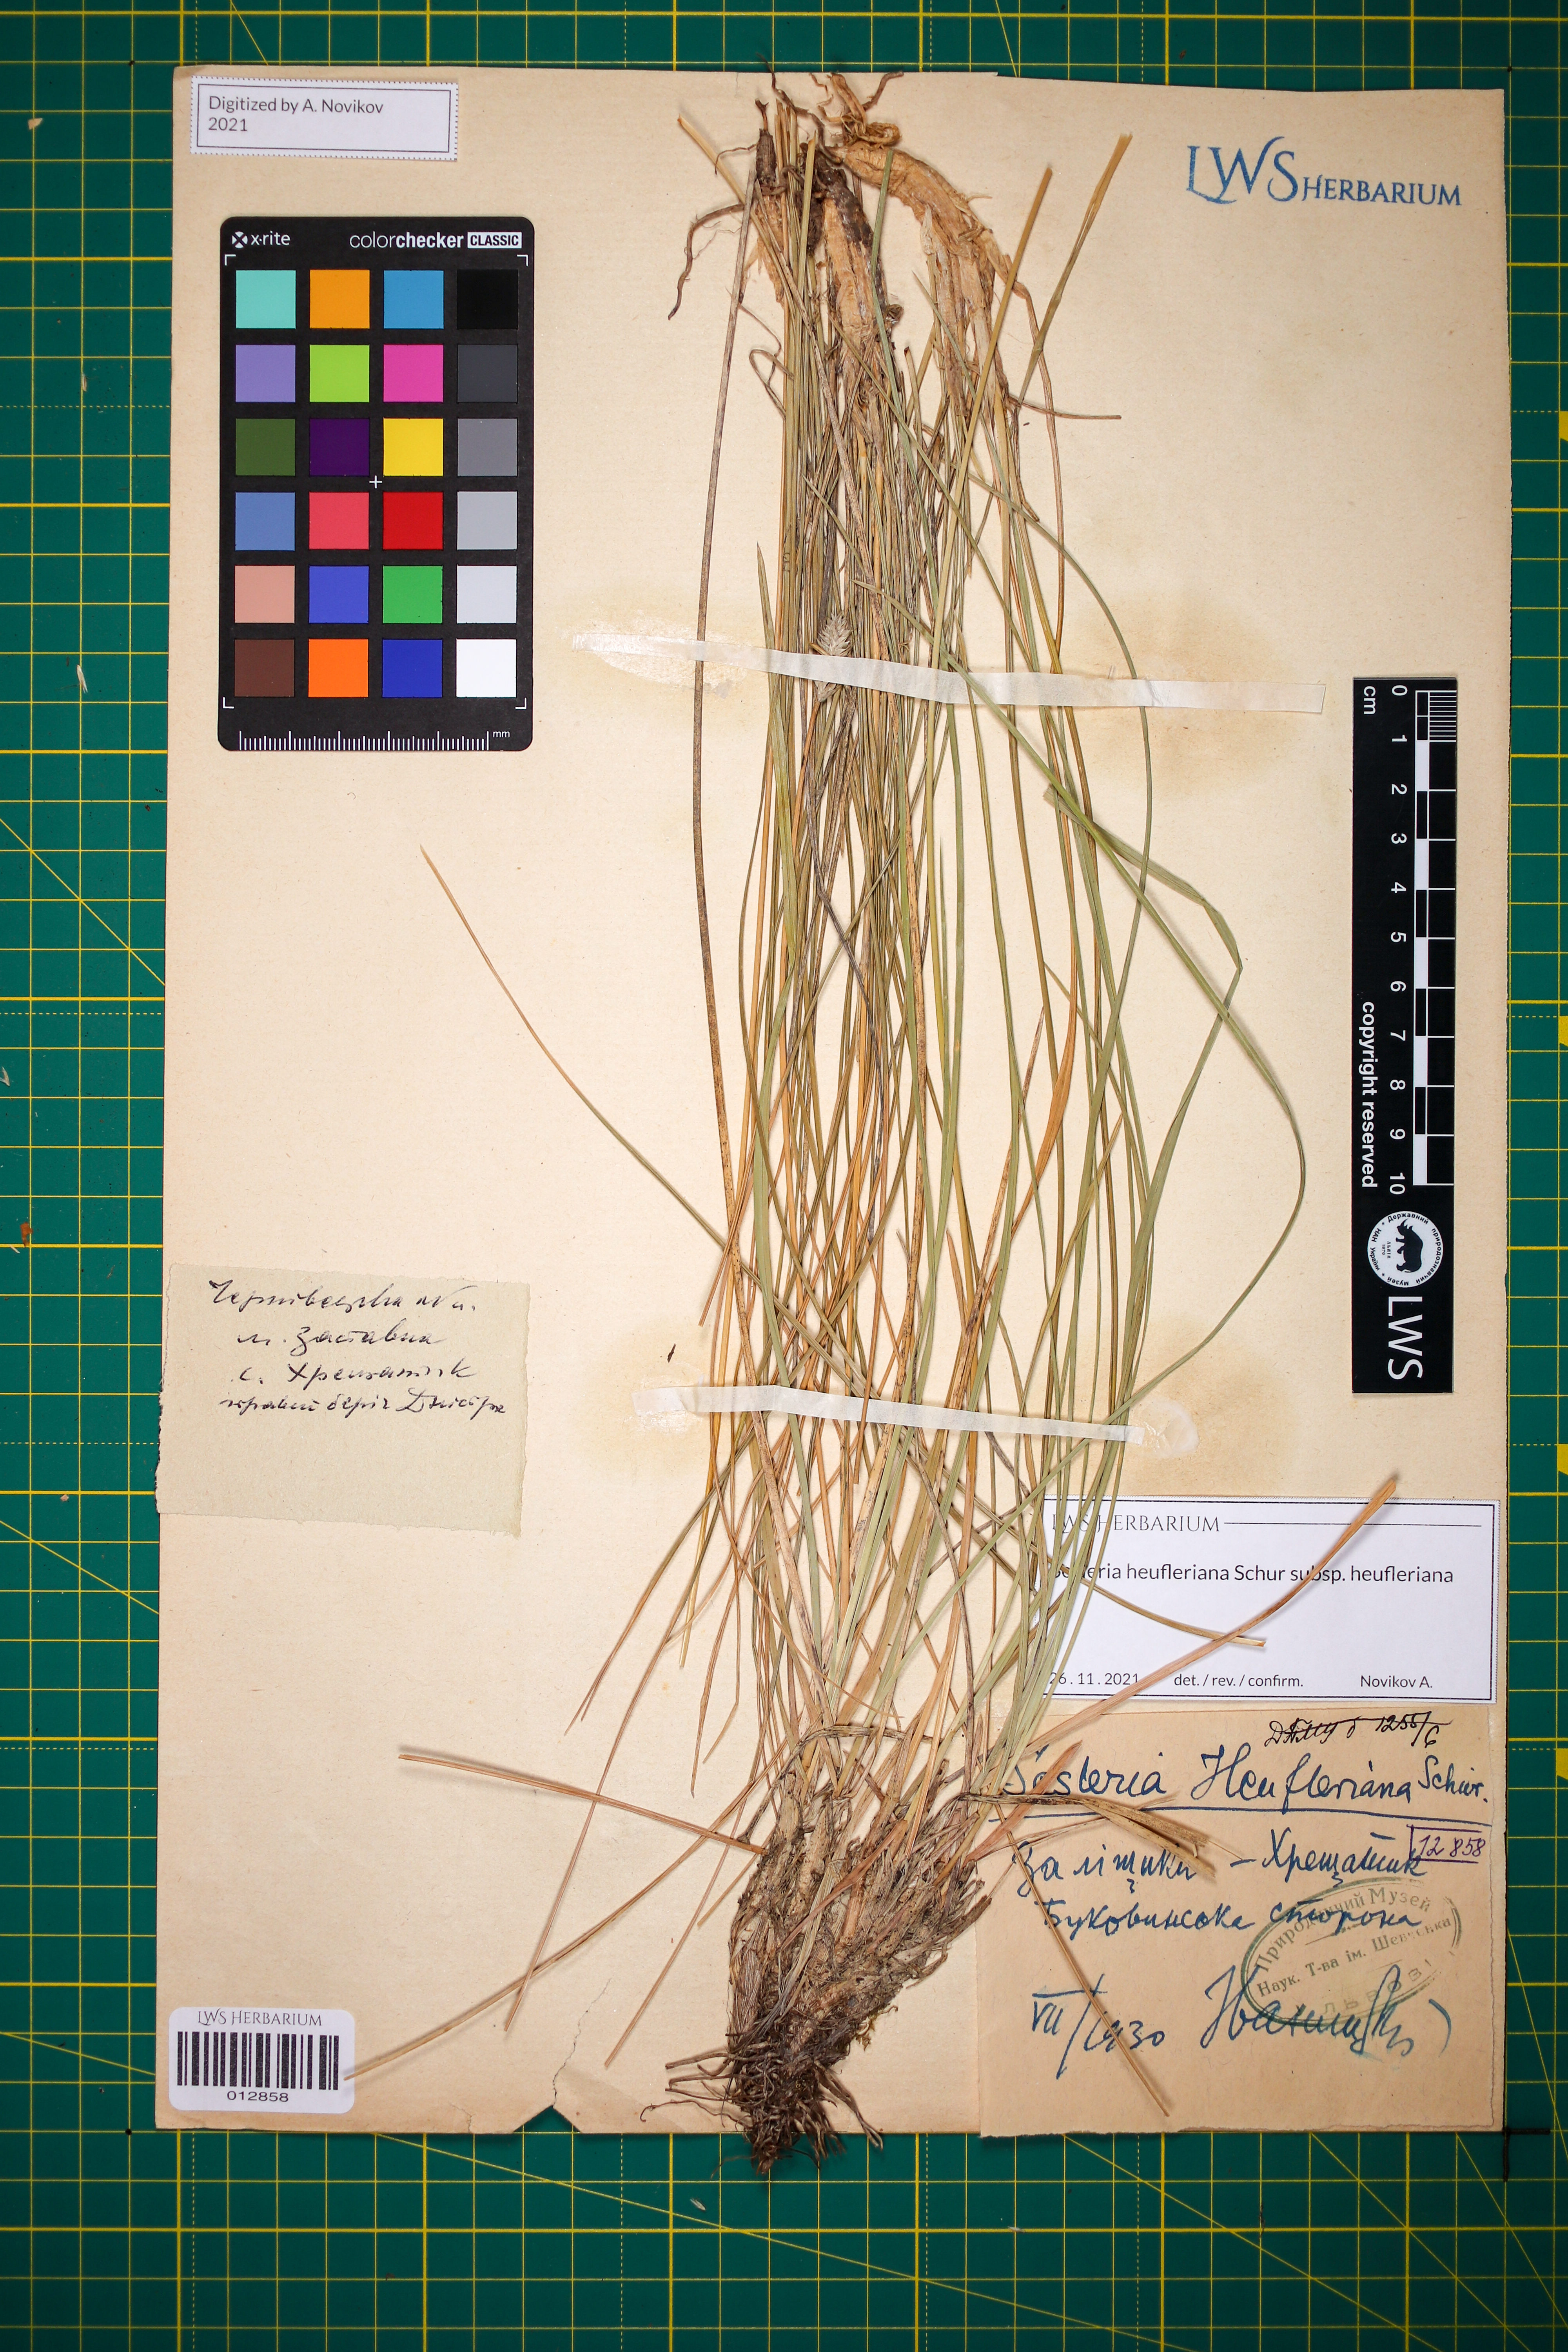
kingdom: Plantae
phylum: Tracheophyta
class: Liliopsida
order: Poales
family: Poaceae
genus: Sesleria
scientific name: Sesleria heufleriana
